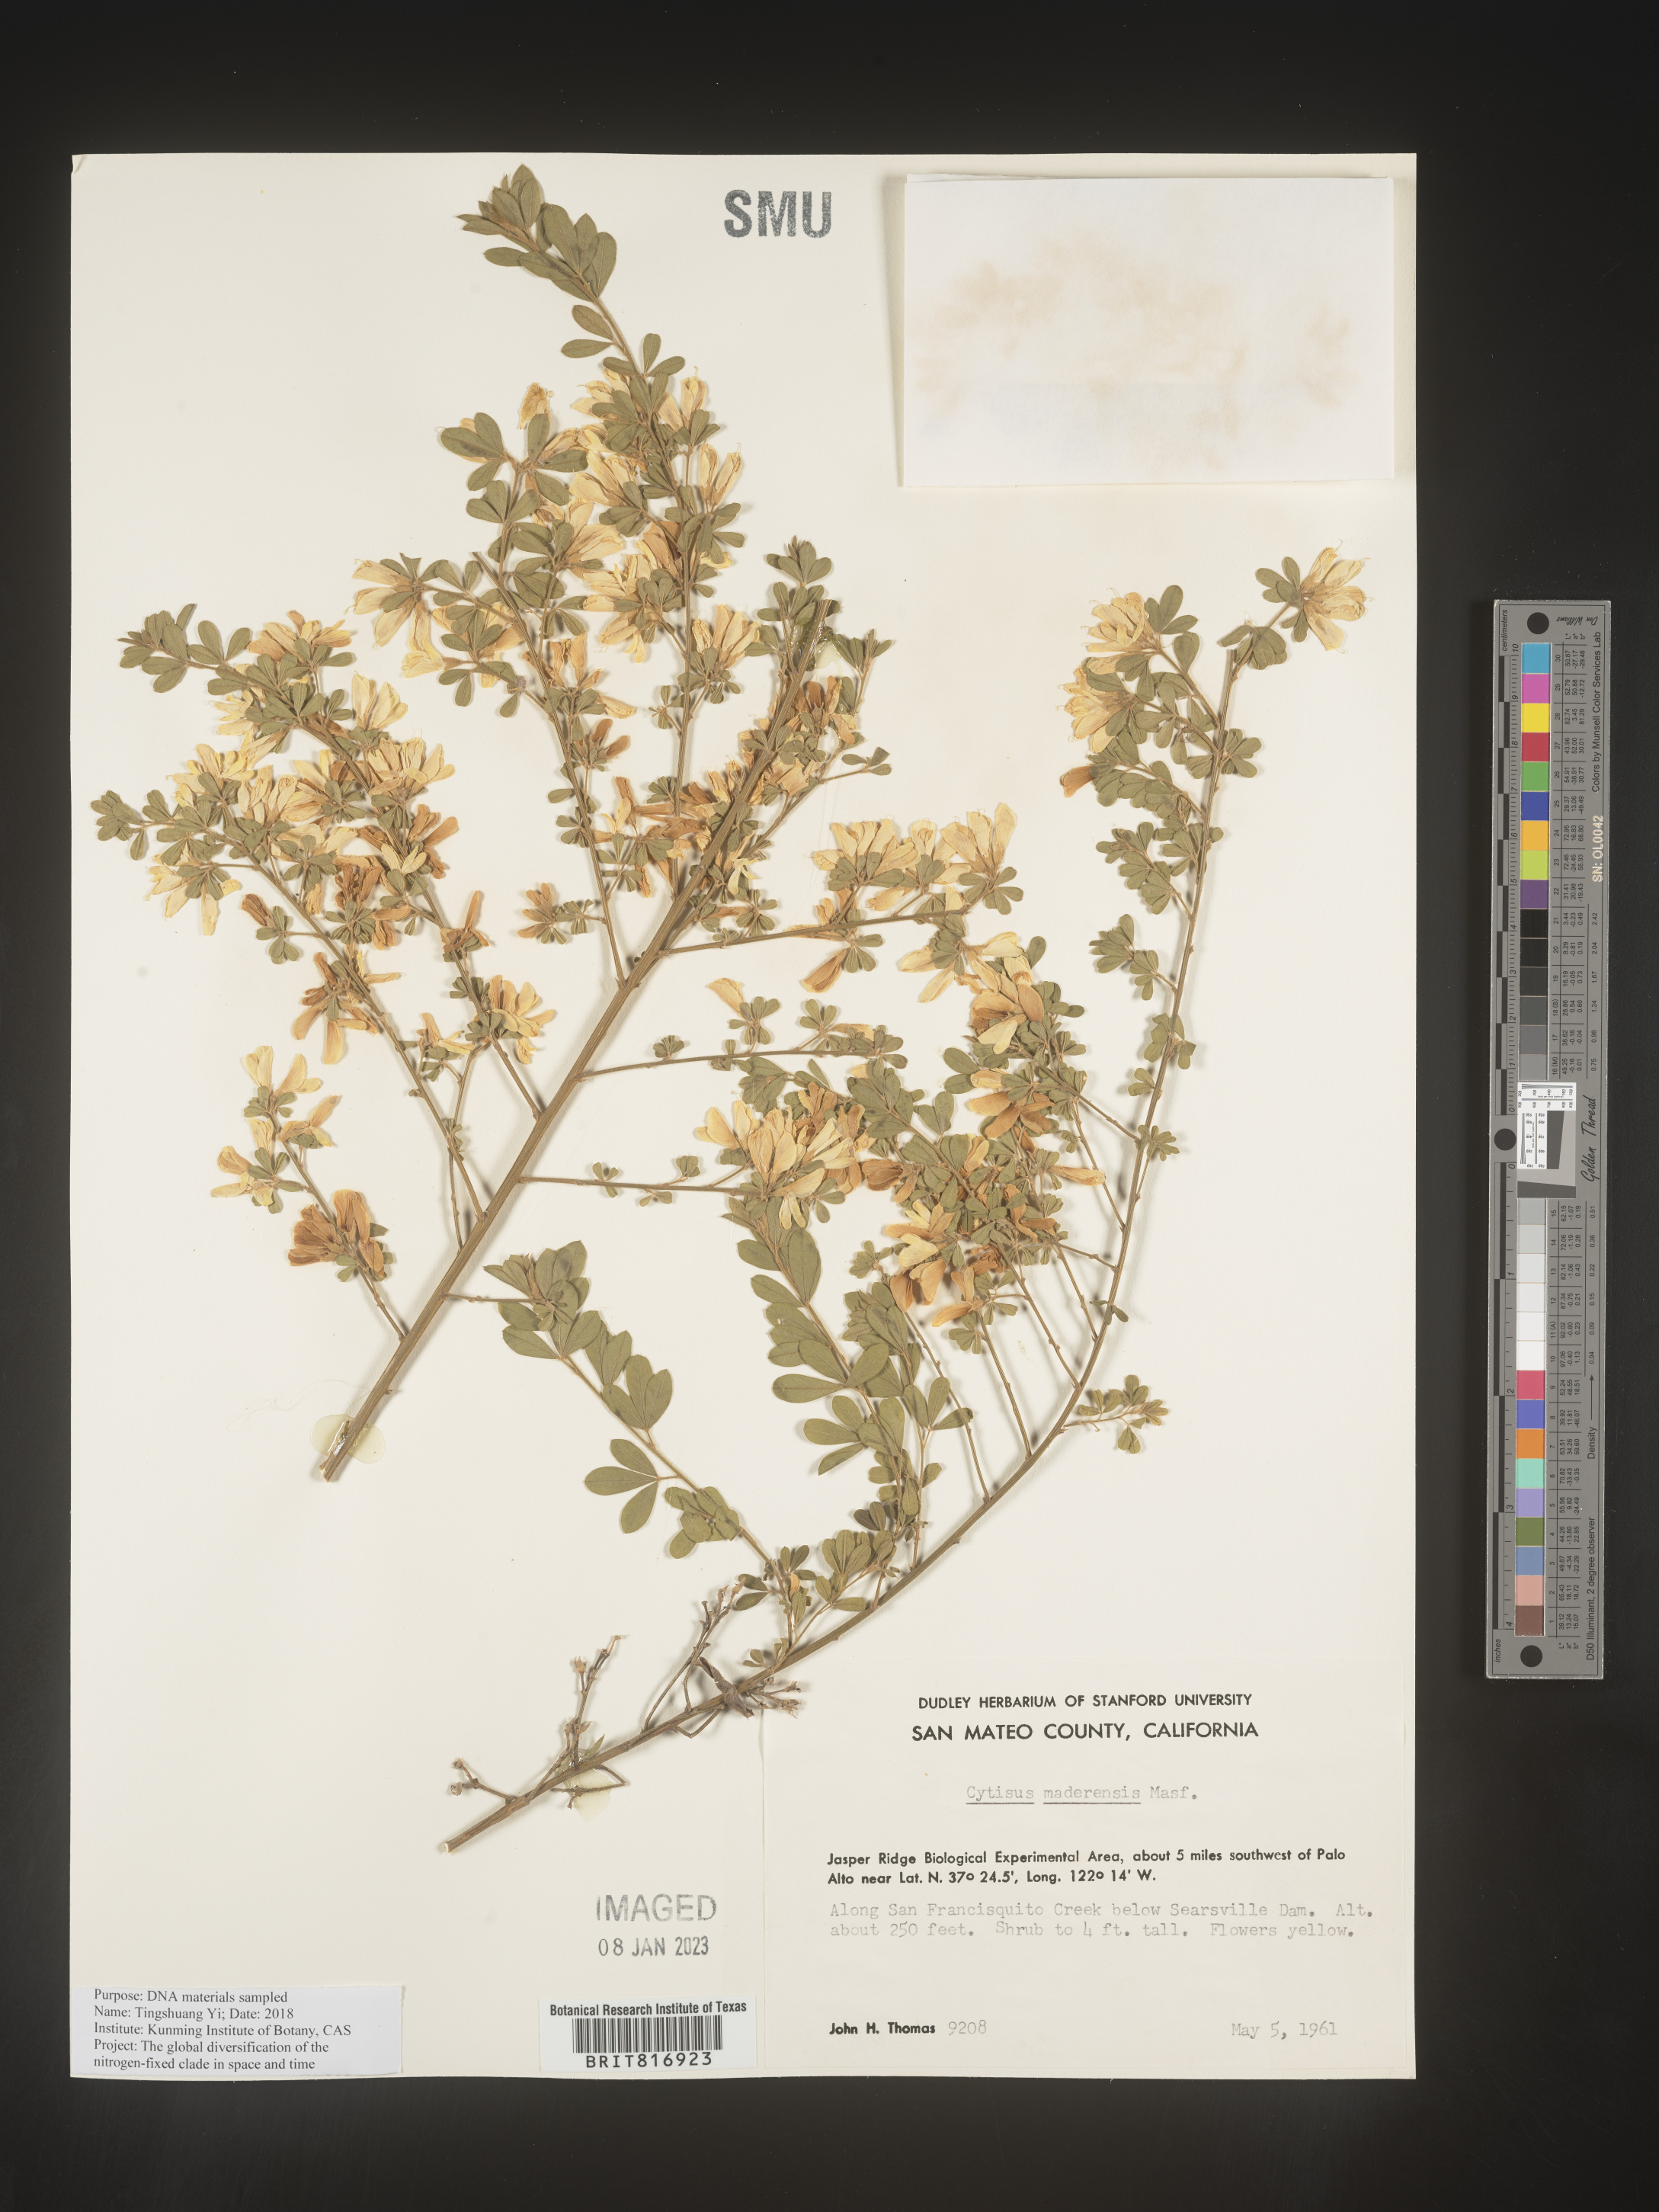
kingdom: Plantae
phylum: Tracheophyta
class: Magnoliopsida
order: Fabales
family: Fabaceae
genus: Cytisus
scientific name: Cytisus
